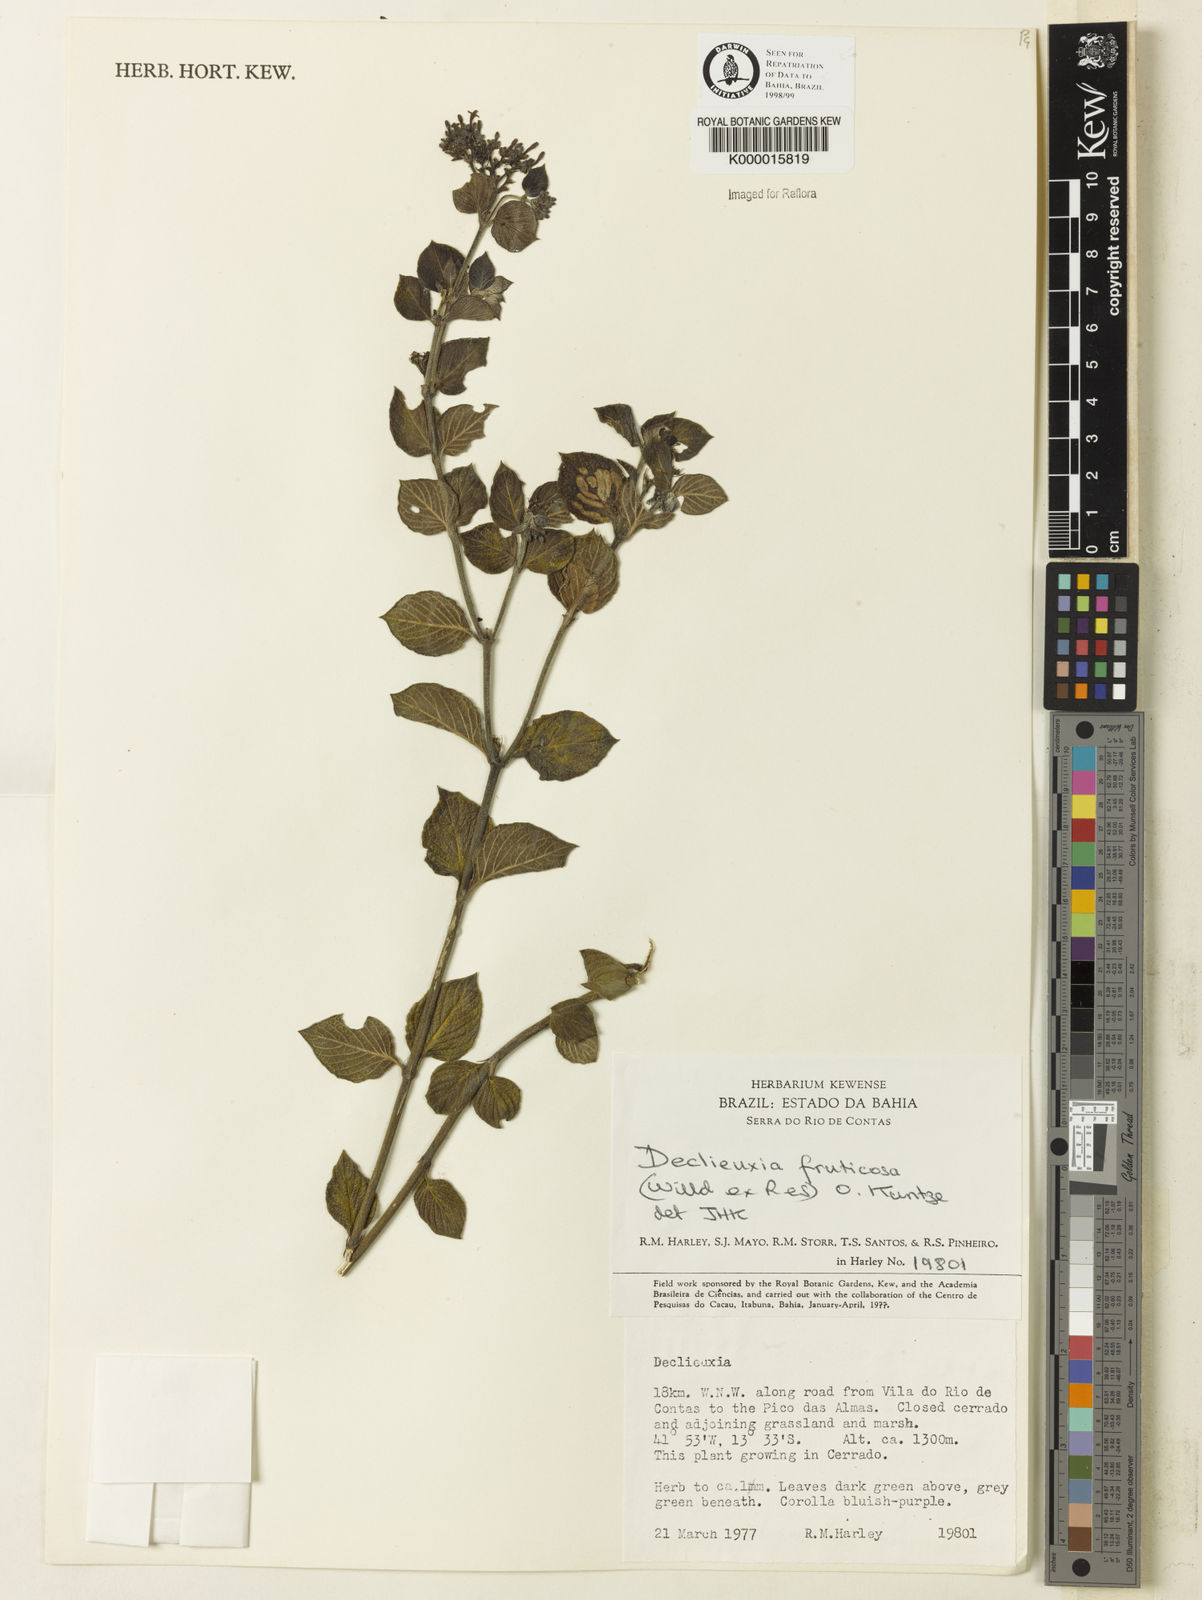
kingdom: Plantae
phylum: Tracheophyta
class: Magnoliopsida
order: Gentianales
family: Rubiaceae
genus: Declieuxia
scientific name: Declieuxia fruticosa
